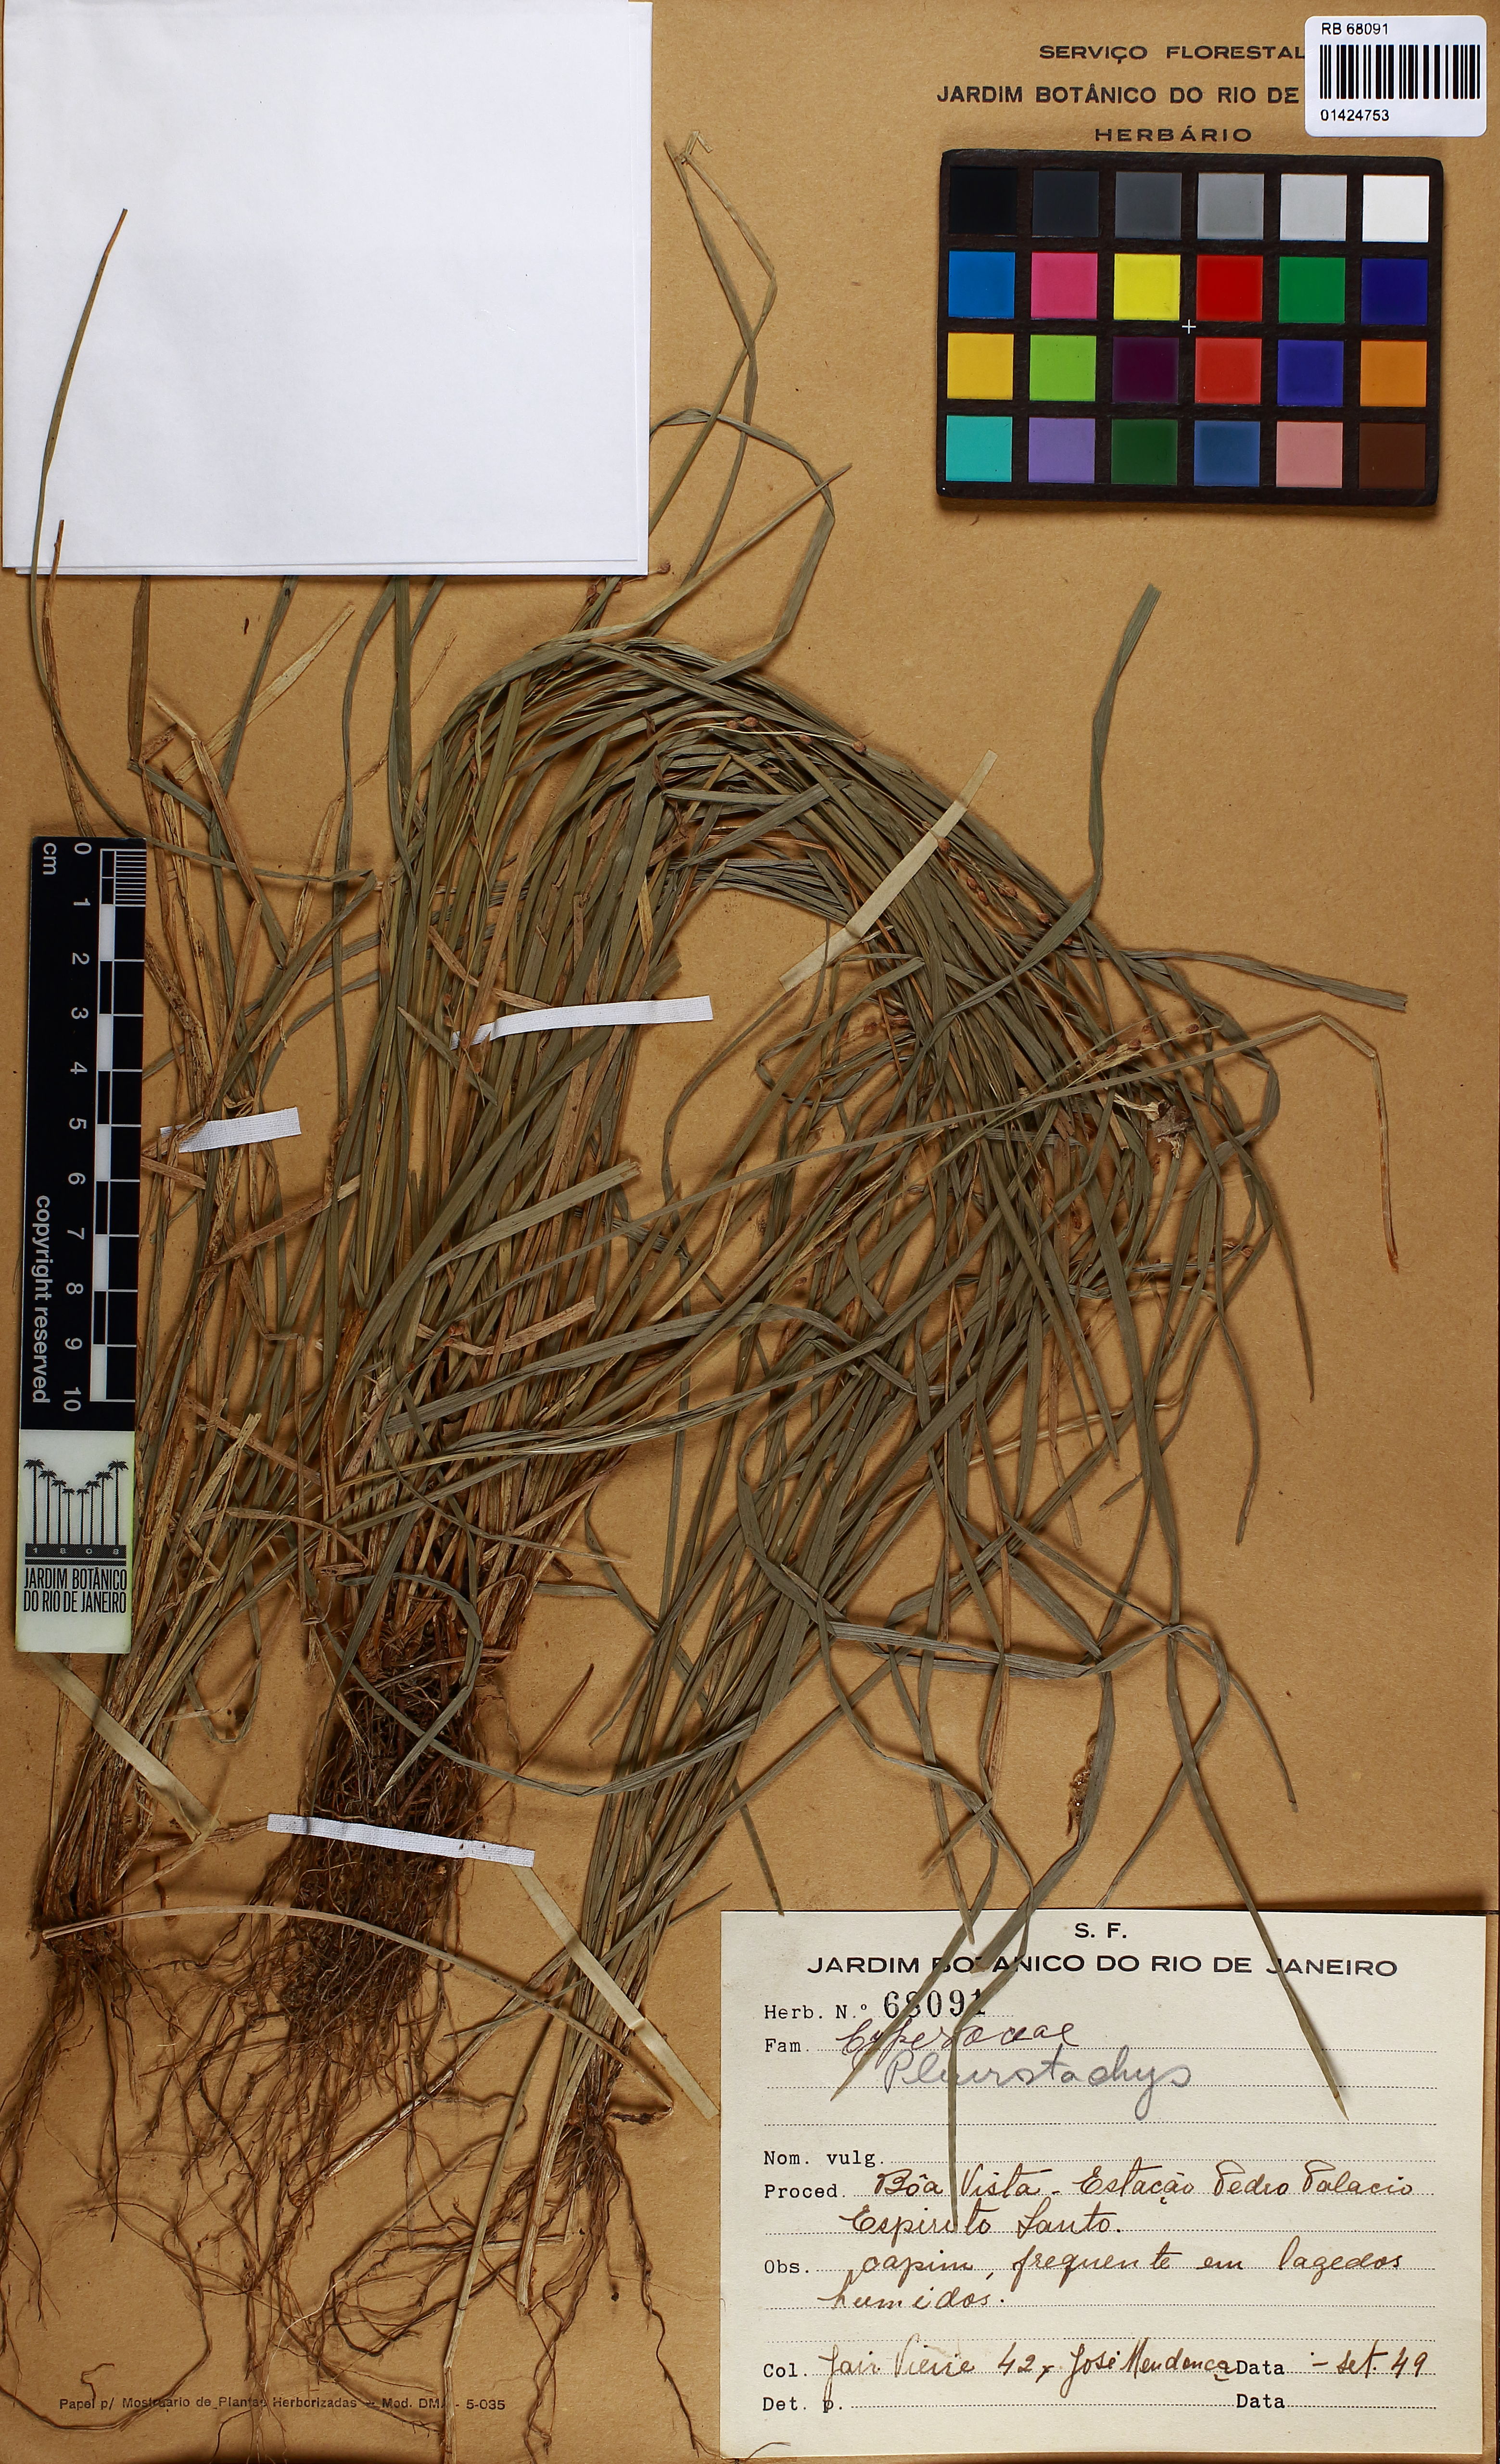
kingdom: Plantae
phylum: Tracheophyta
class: Liliopsida
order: Poales
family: Cyperaceae
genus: Rhynchospora
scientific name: Rhynchospora
